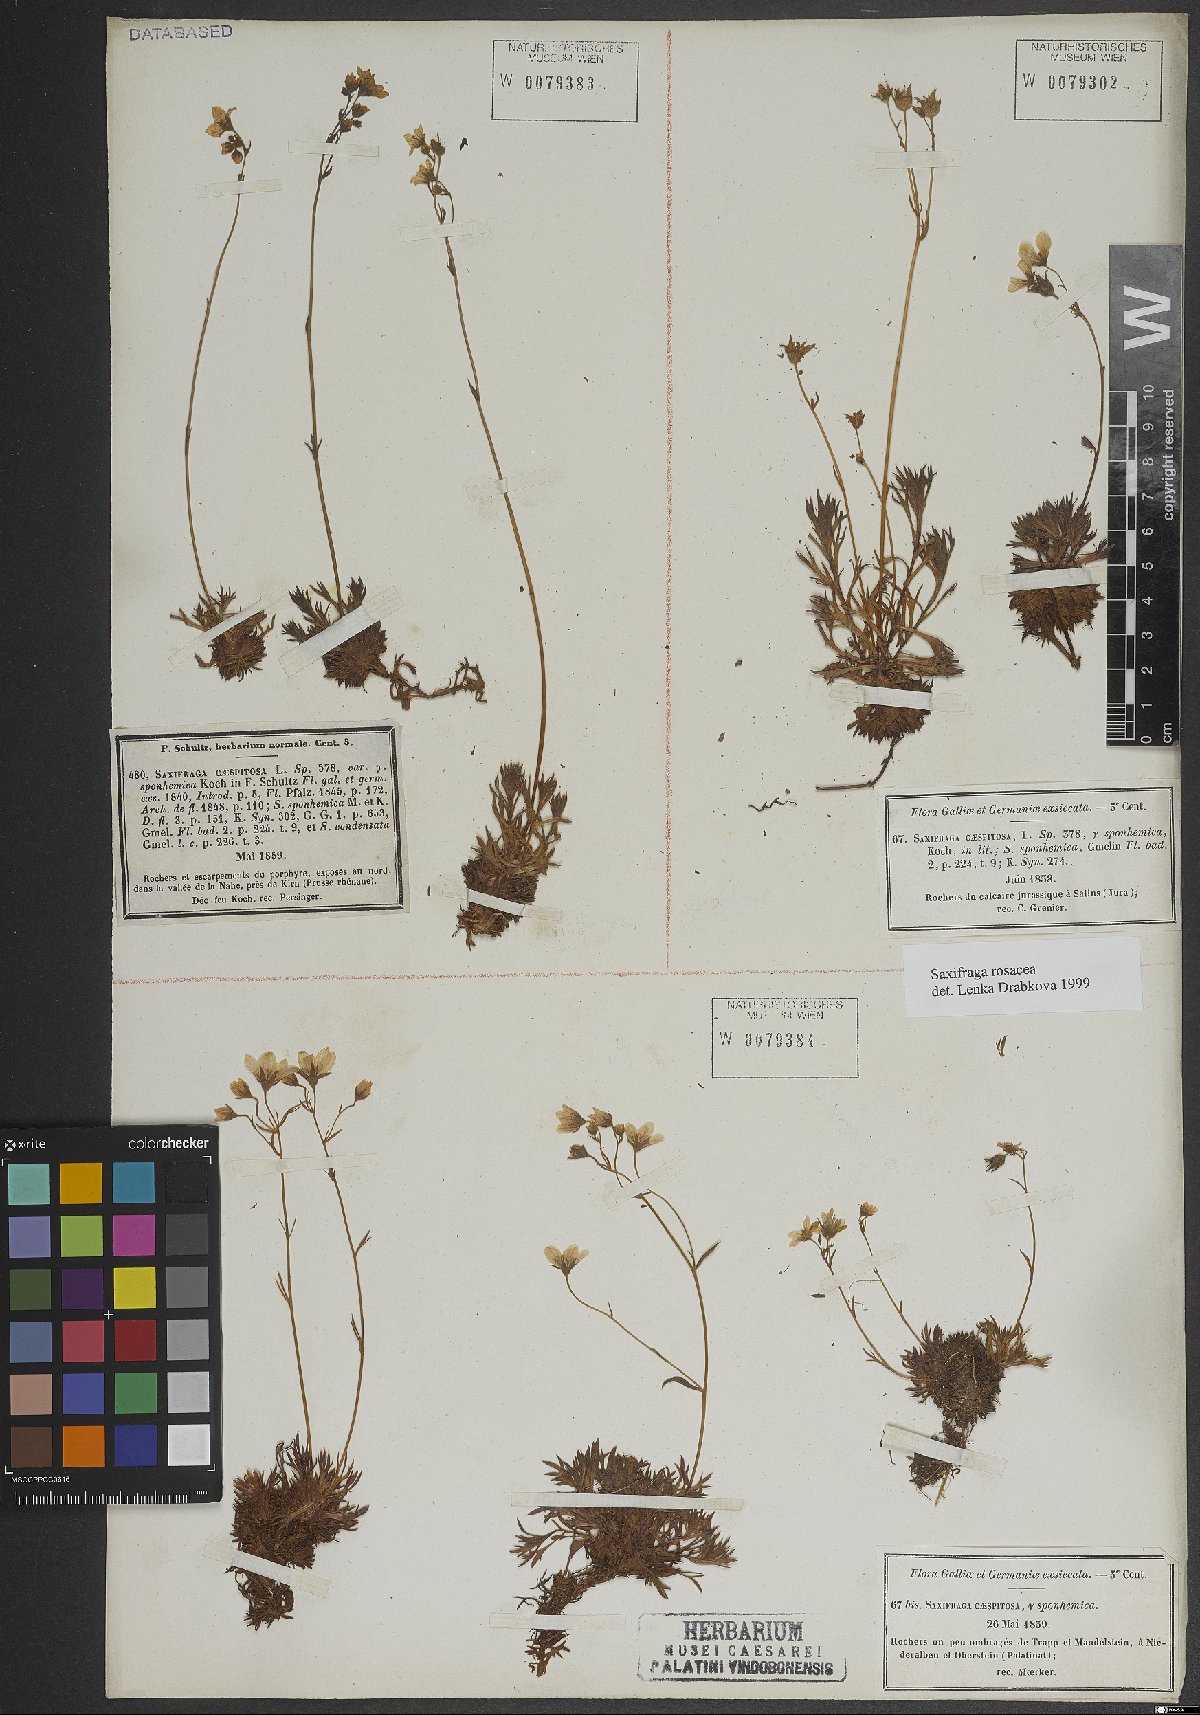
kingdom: Plantae
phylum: Tracheophyta
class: Magnoliopsida
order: Saxifragales
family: Saxifragaceae
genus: Saxifraga
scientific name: Saxifraga rosacea
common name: Irish saxifrage
